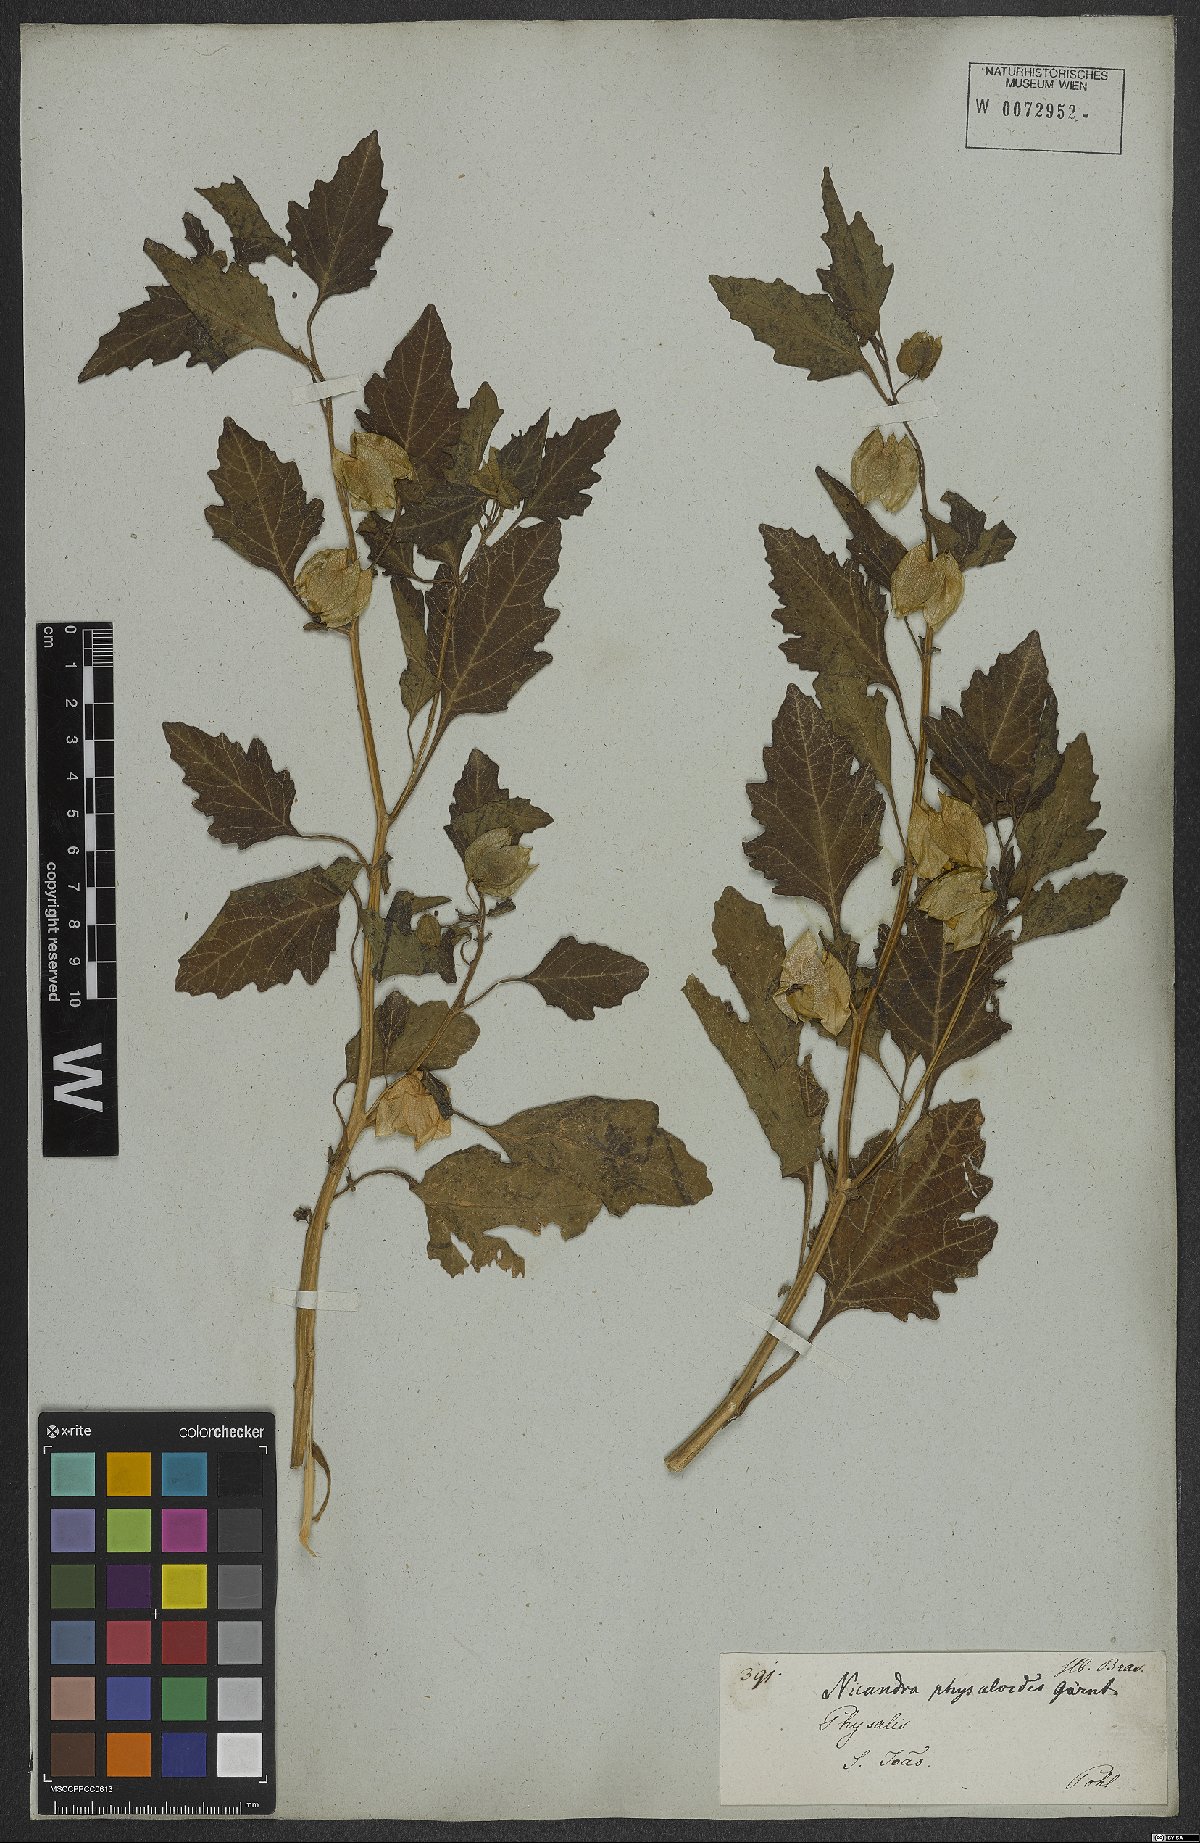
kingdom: Plantae
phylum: Tracheophyta
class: Magnoliopsida
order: Solanales
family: Solanaceae
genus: Nicandra
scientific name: Nicandra physalodes
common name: Apple-of-peru
